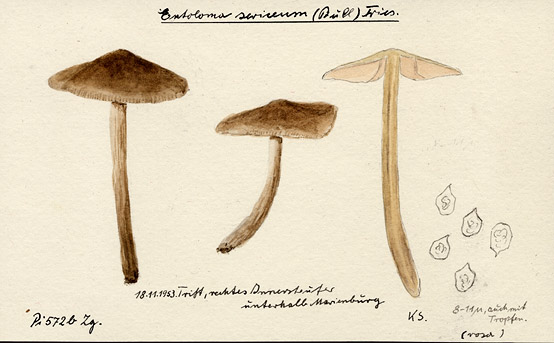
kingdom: Fungi
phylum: Basidiomycota
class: Agaricomycetes
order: Agaricales
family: Entolomataceae
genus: Entoloma
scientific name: Entoloma sericeum
